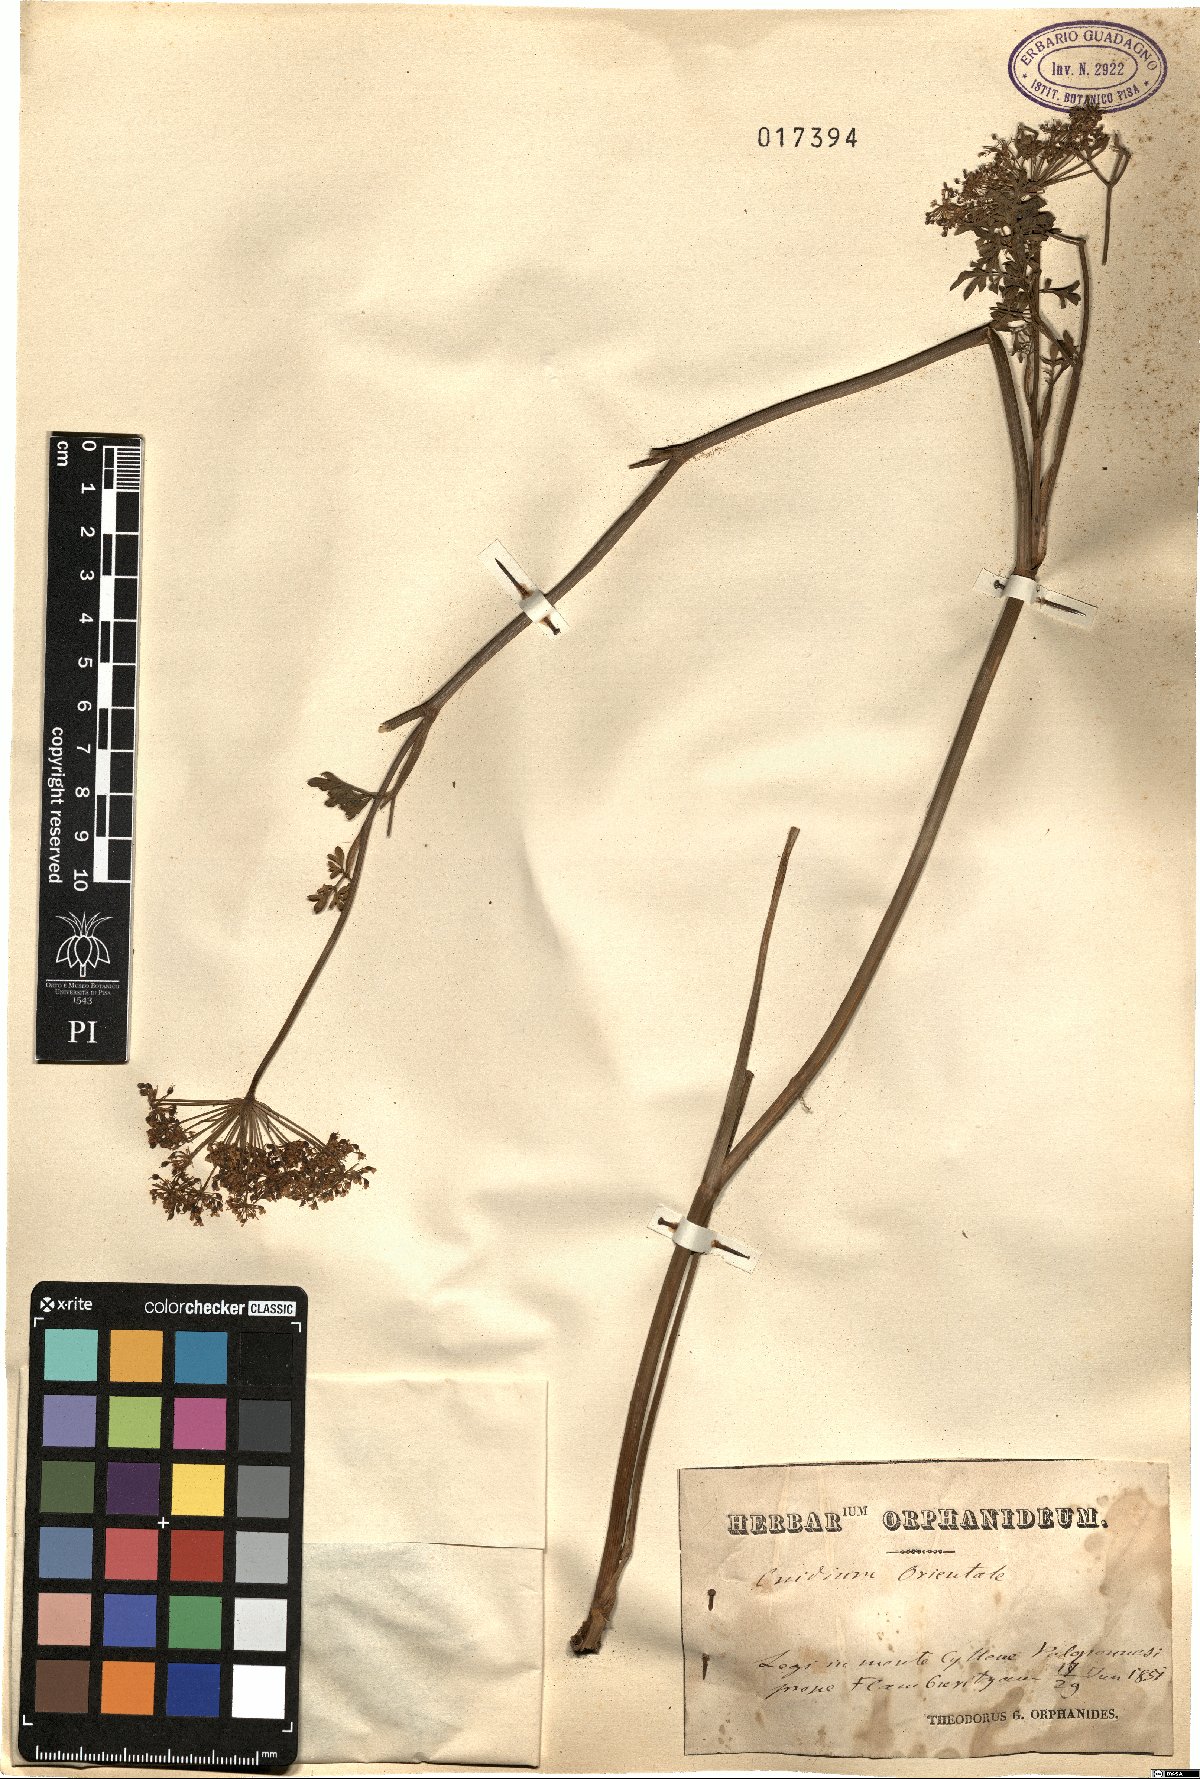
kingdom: Plantae
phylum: Tracheophyta
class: Magnoliopsida
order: Apiales
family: Apiaceae
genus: Katapsuxis
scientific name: Katapsuxis silaifolia
